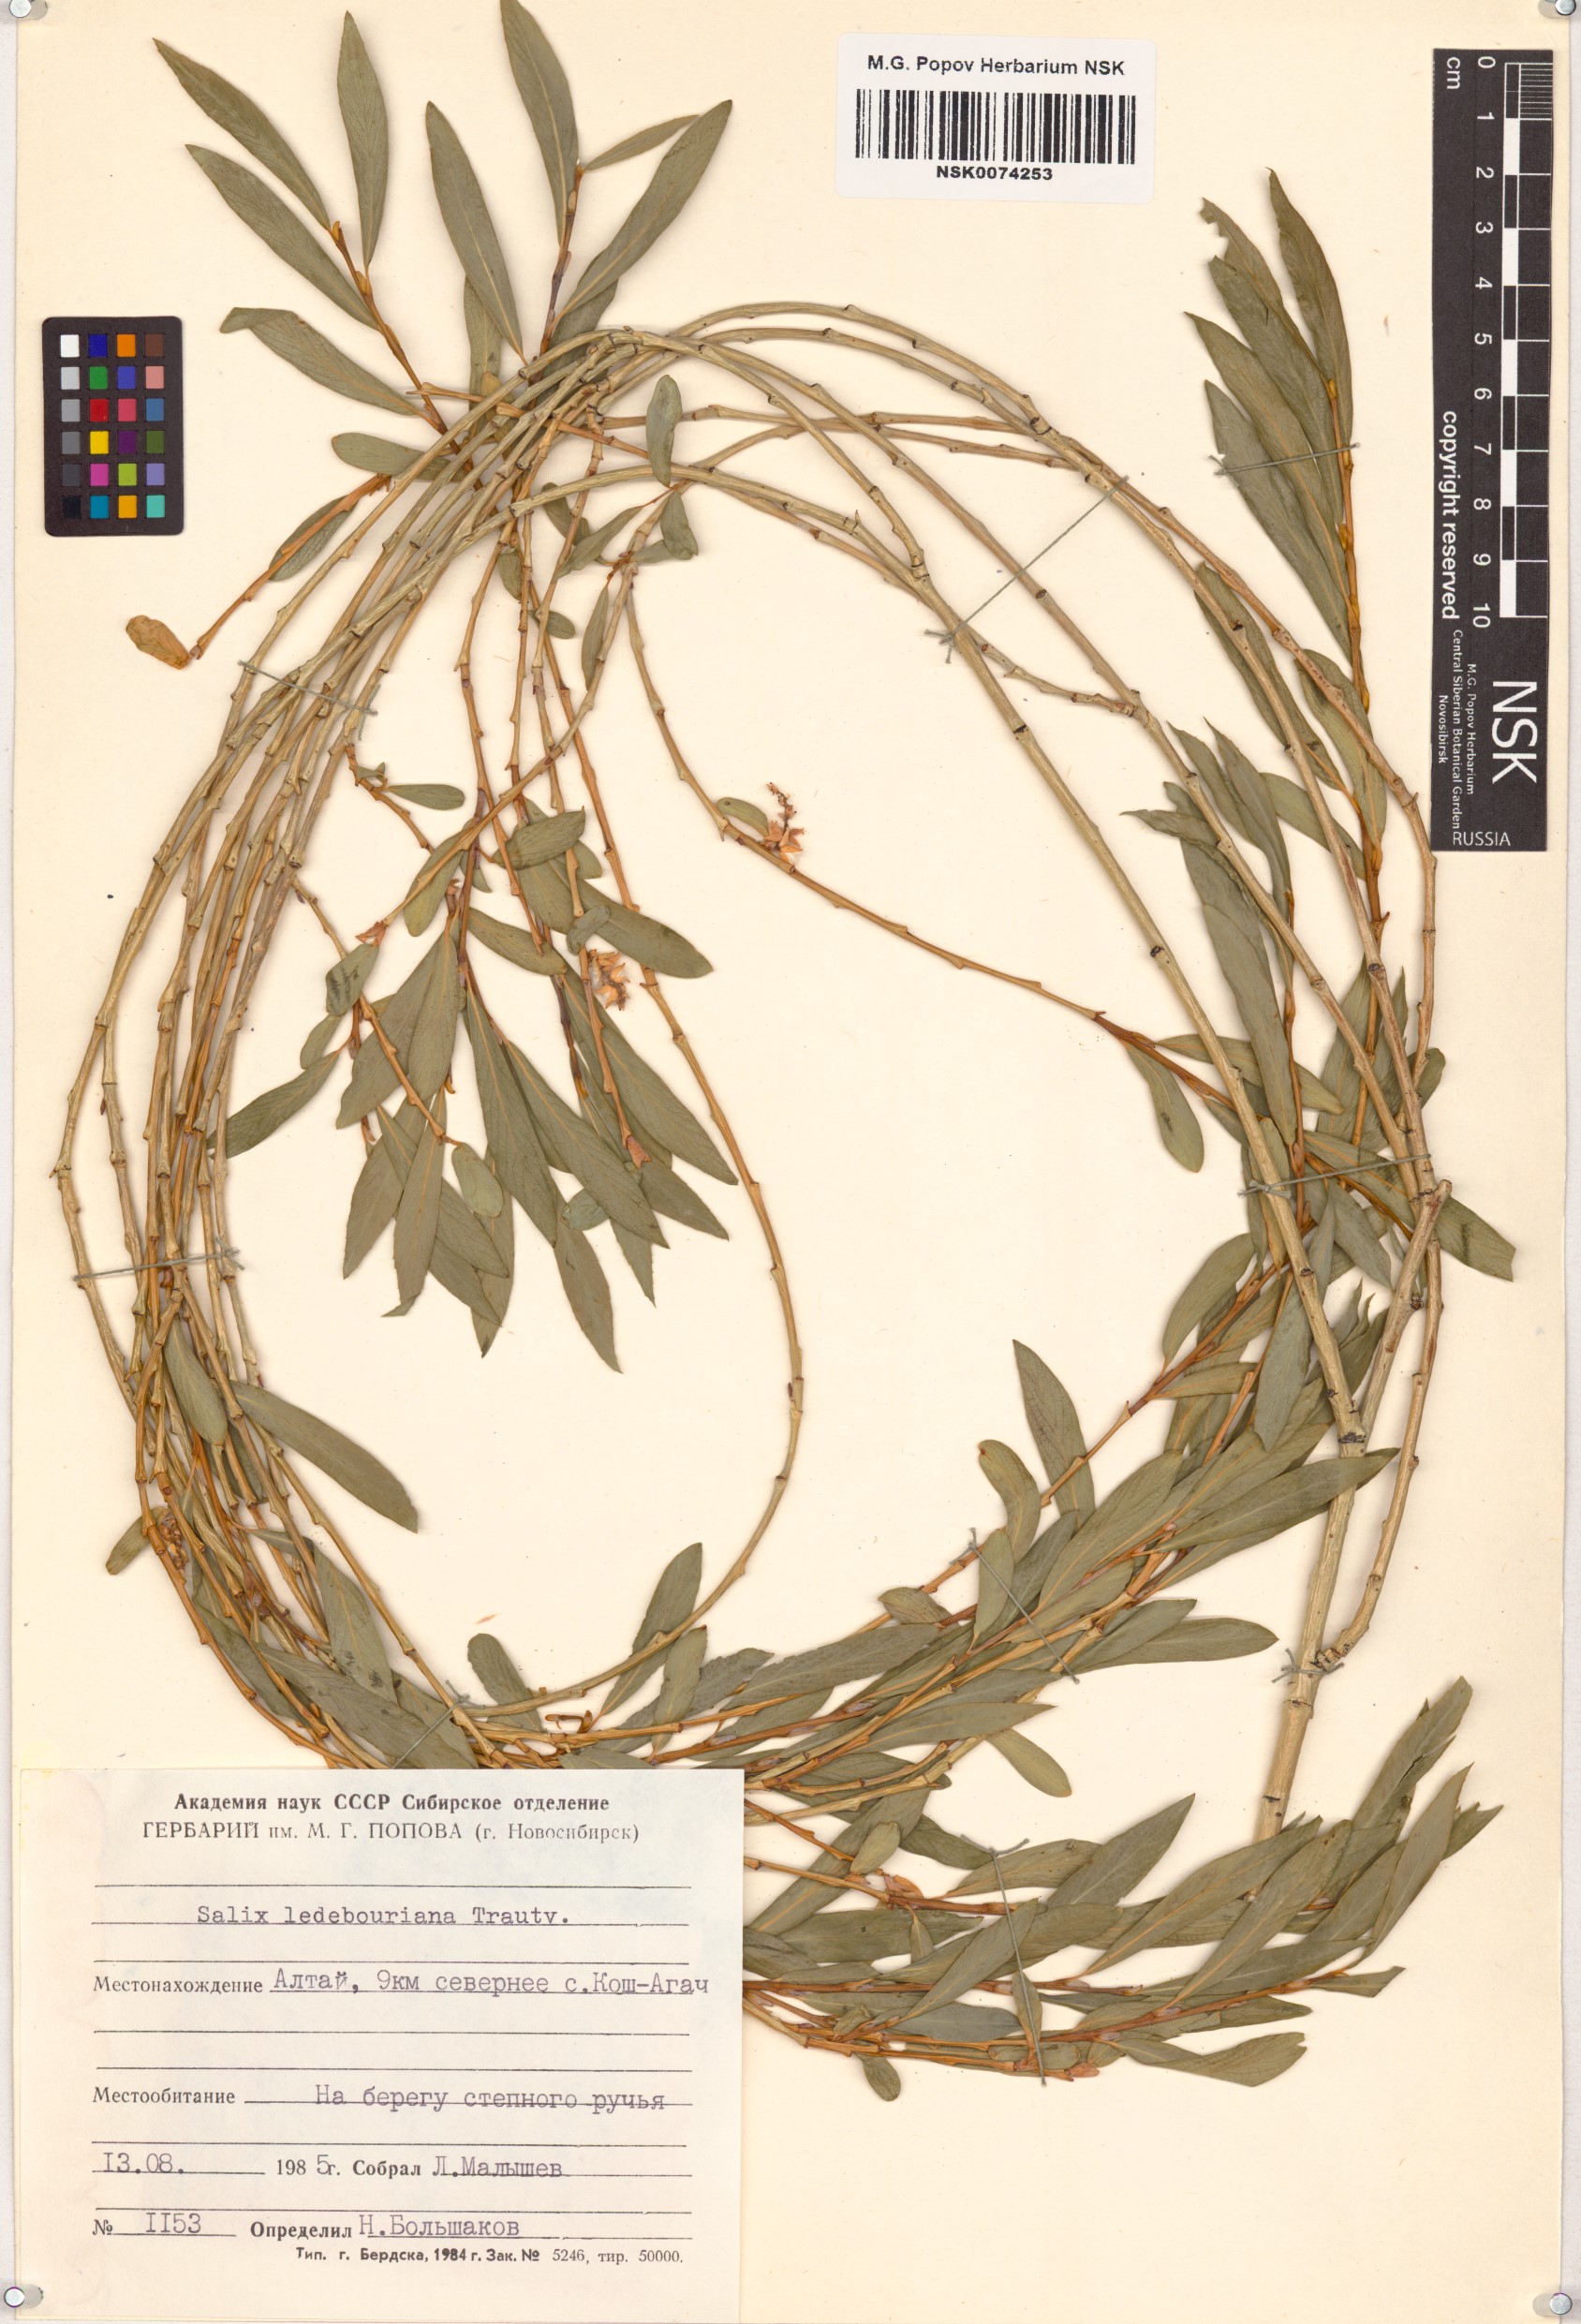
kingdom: Plantae
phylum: Tracheophyta
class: Magnoliopsida
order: Malpighiales
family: Salicaceae
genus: Salix
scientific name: Salix ledebouriana
